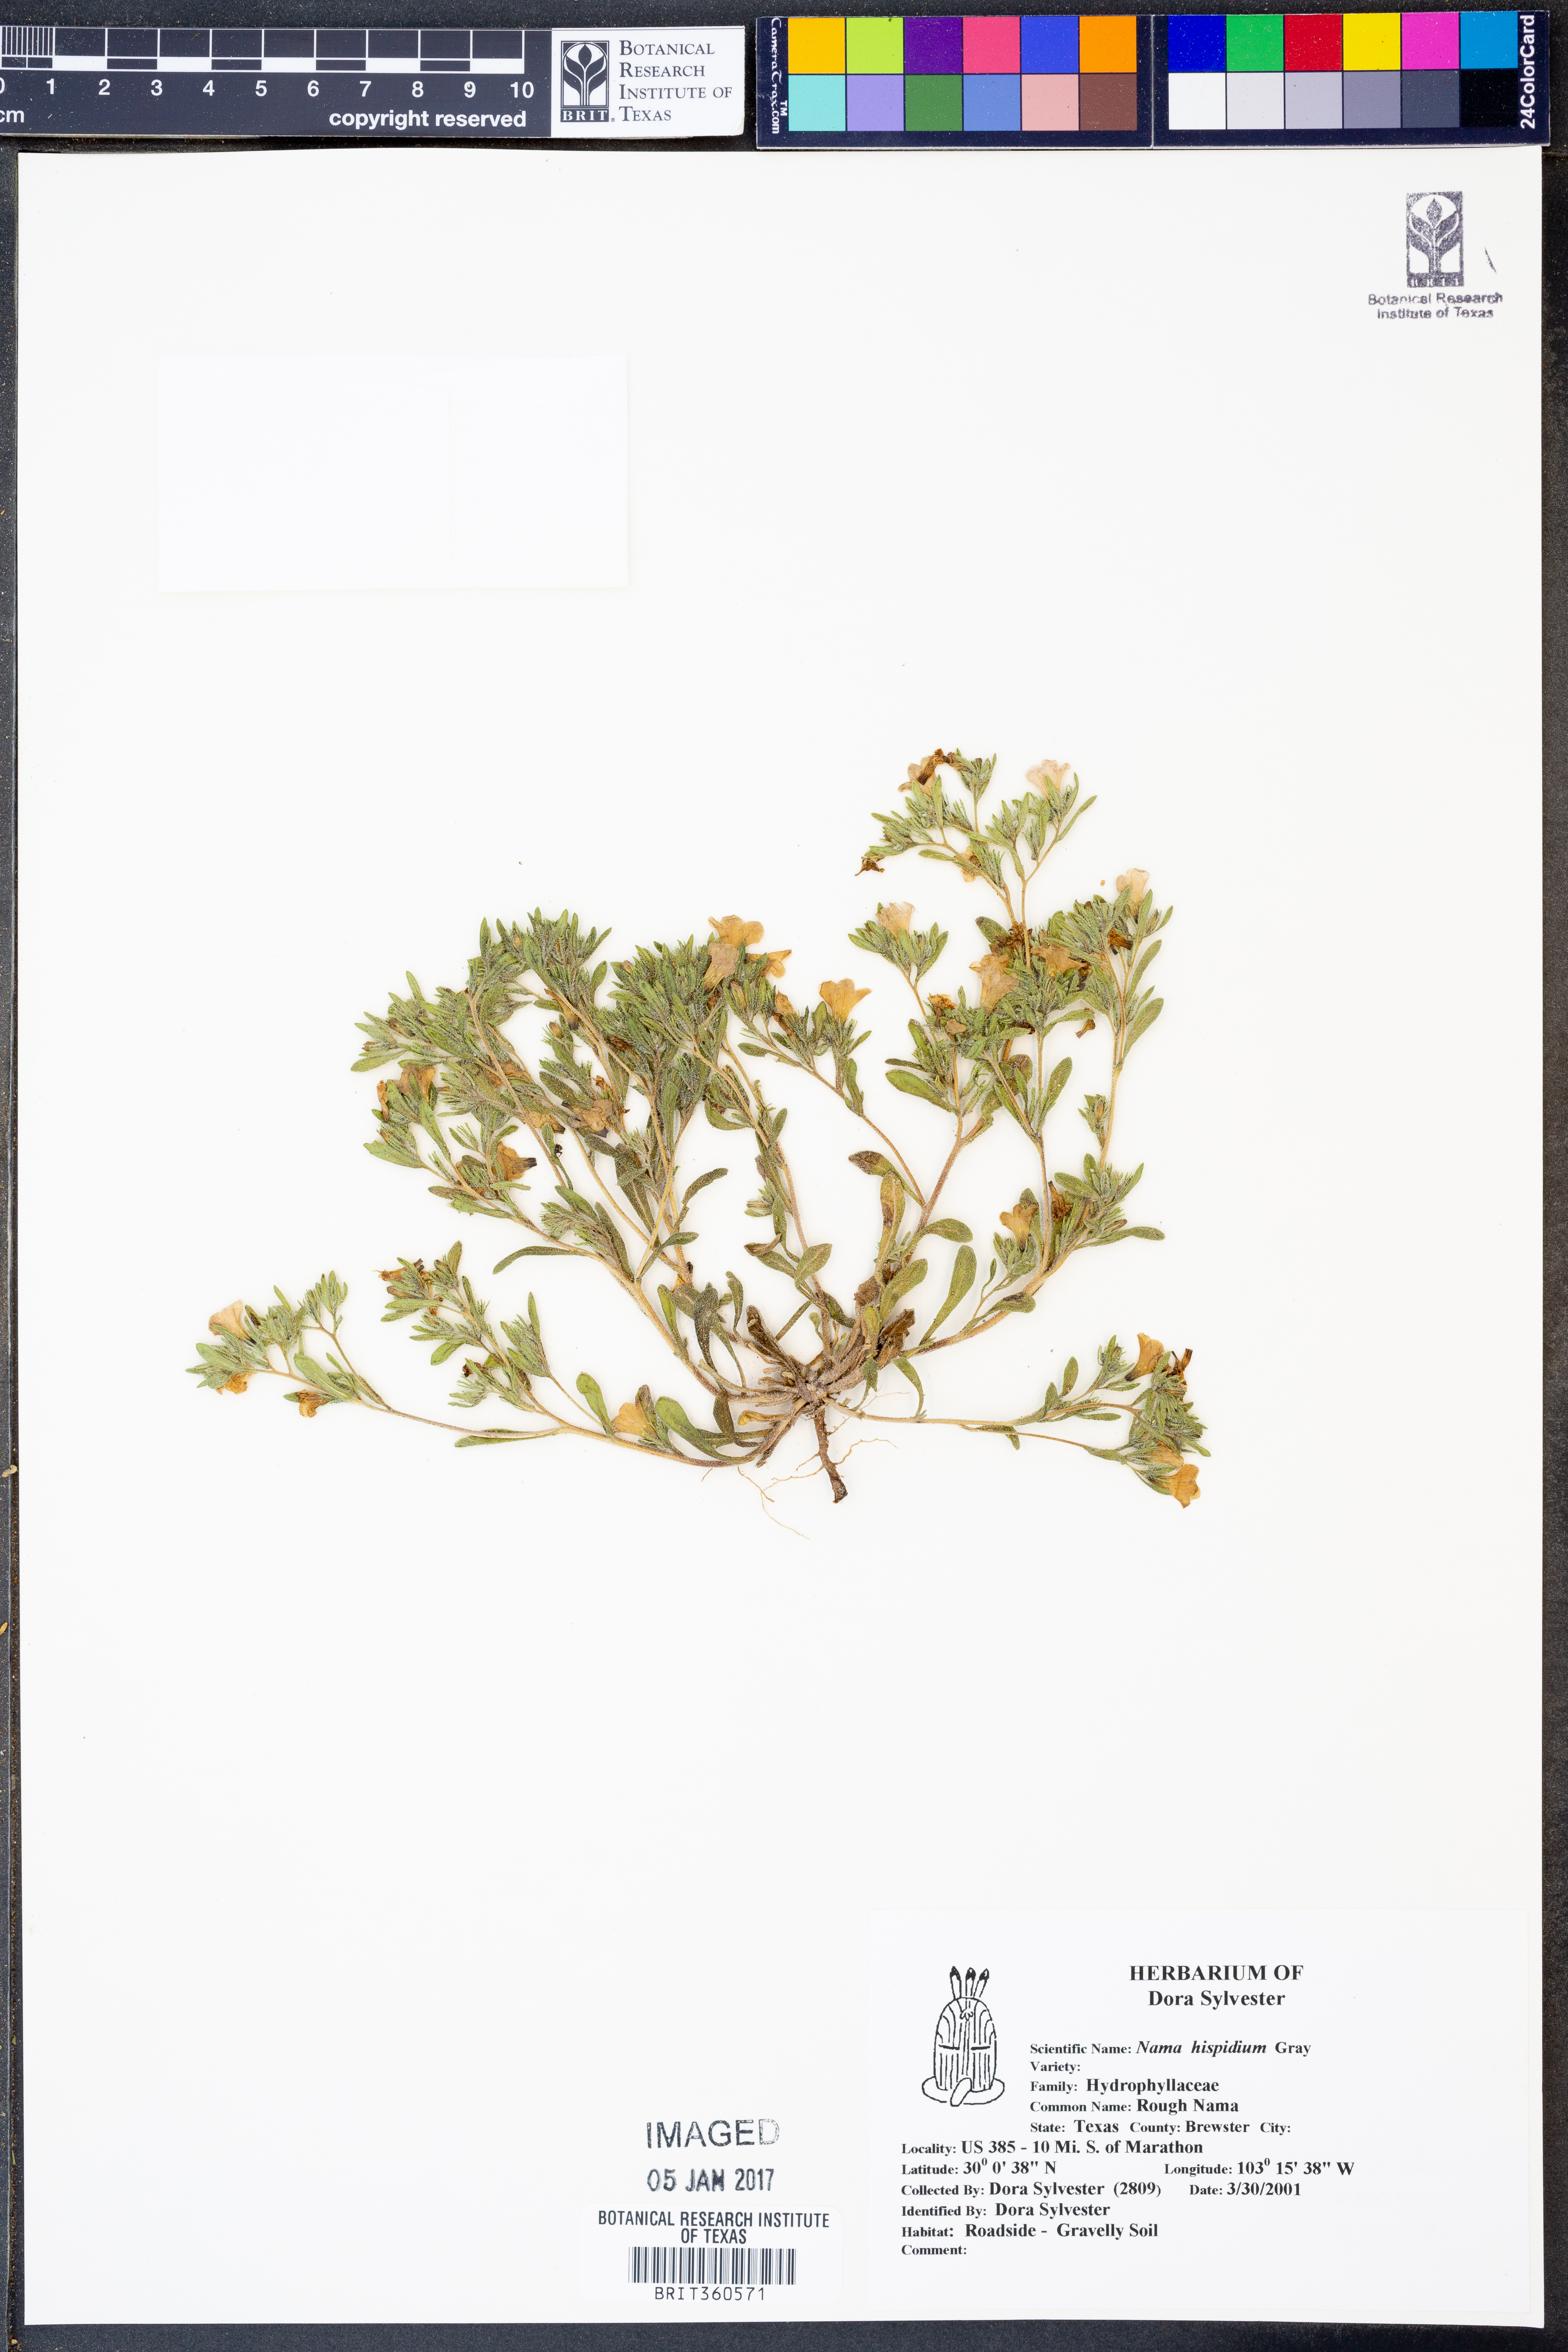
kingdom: Plantae
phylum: Tracheophyta
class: Magnoliopsida
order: Boraginales
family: Namaceae
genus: Nama
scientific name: Nama hispida
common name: Bristly nama
